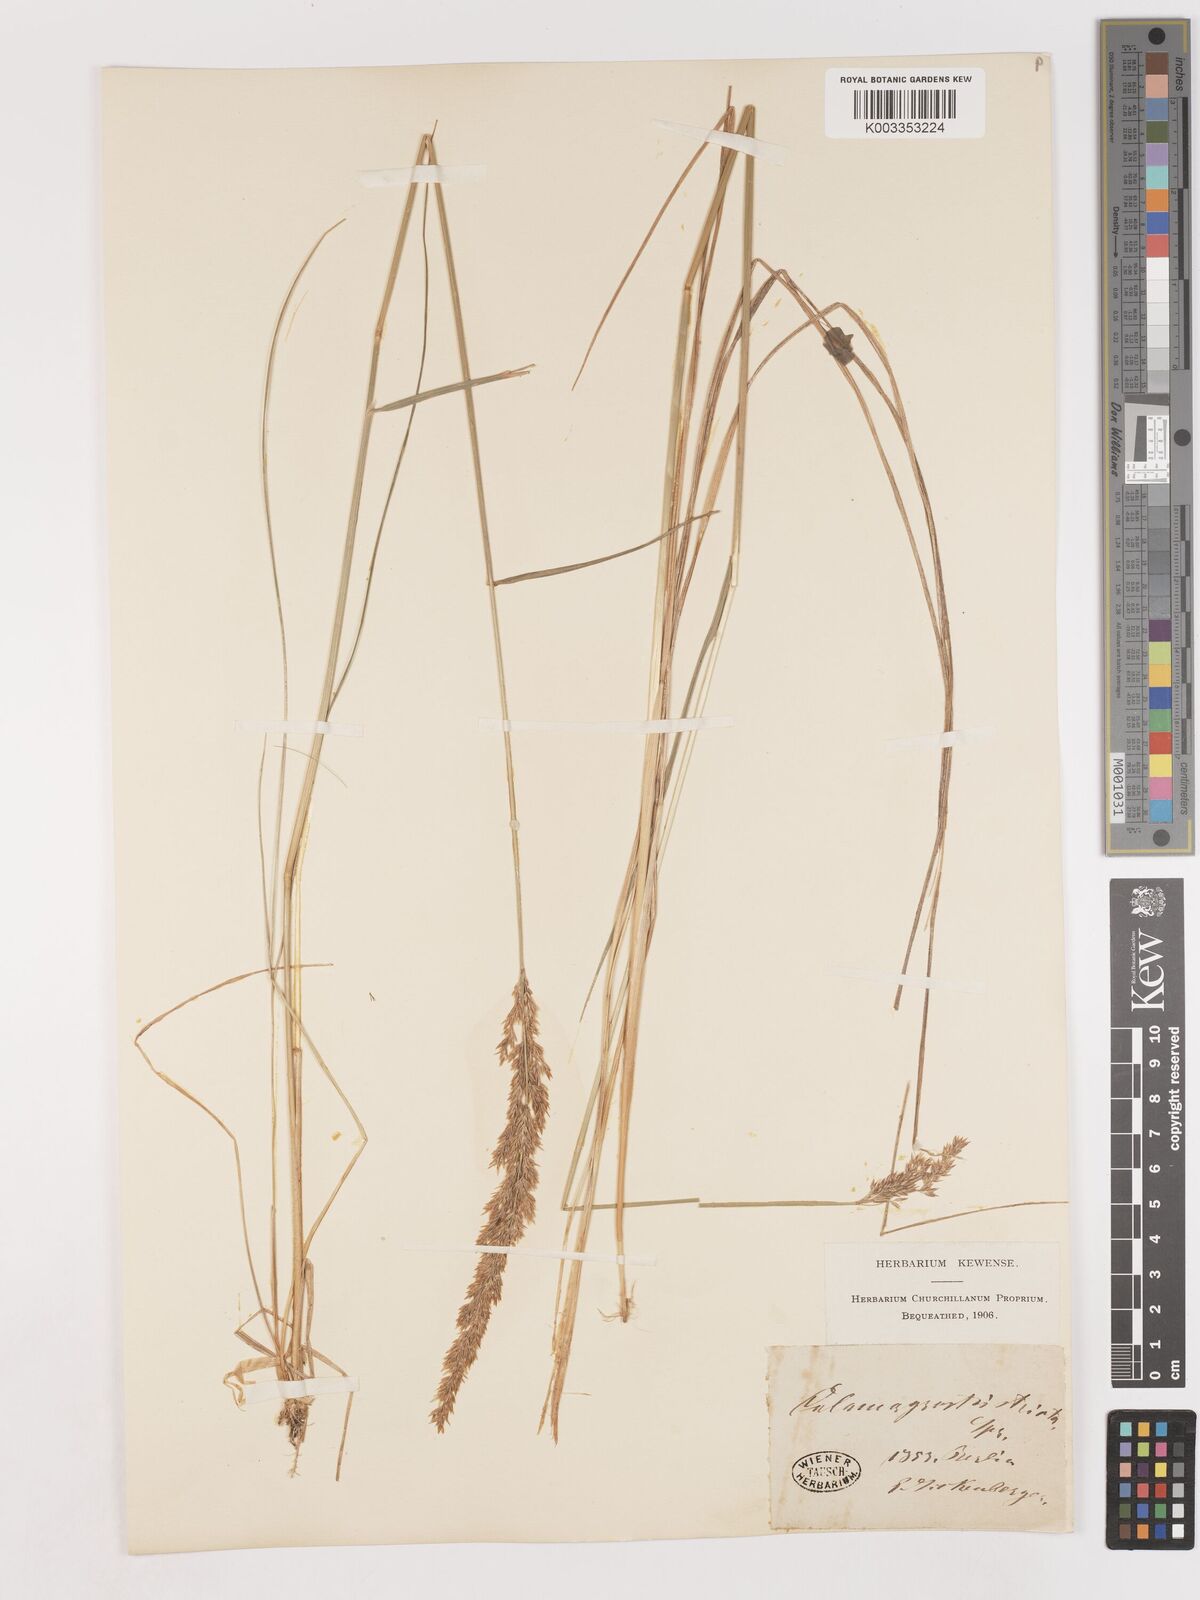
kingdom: Plantae
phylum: Tracheophyta
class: Liliopsida
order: Poales
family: Poaceae
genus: Cinnagrostis
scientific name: Cinnagrostis recta
